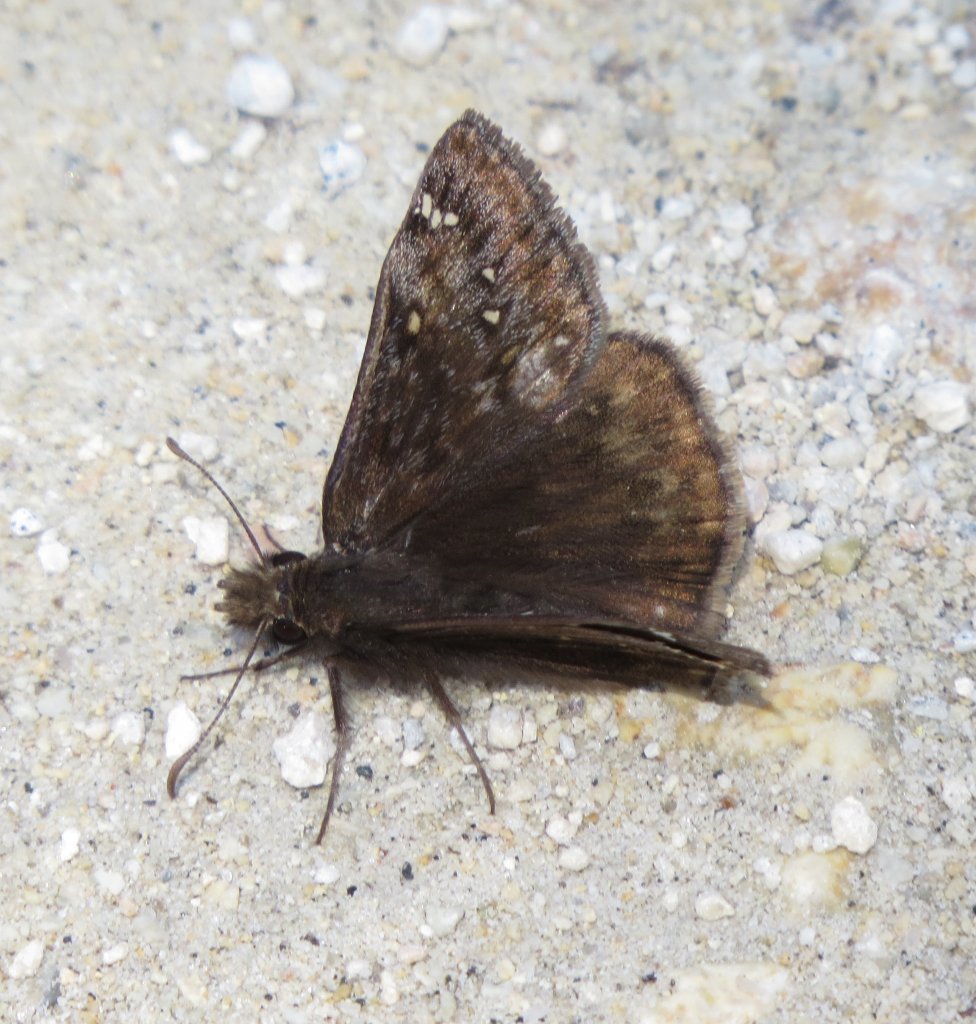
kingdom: Animalia
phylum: Arthropoda
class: Insecta
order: Lepidoptera
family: Hesperiidae
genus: Gesta
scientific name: Gesta
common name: Juvenal's Duskywing
